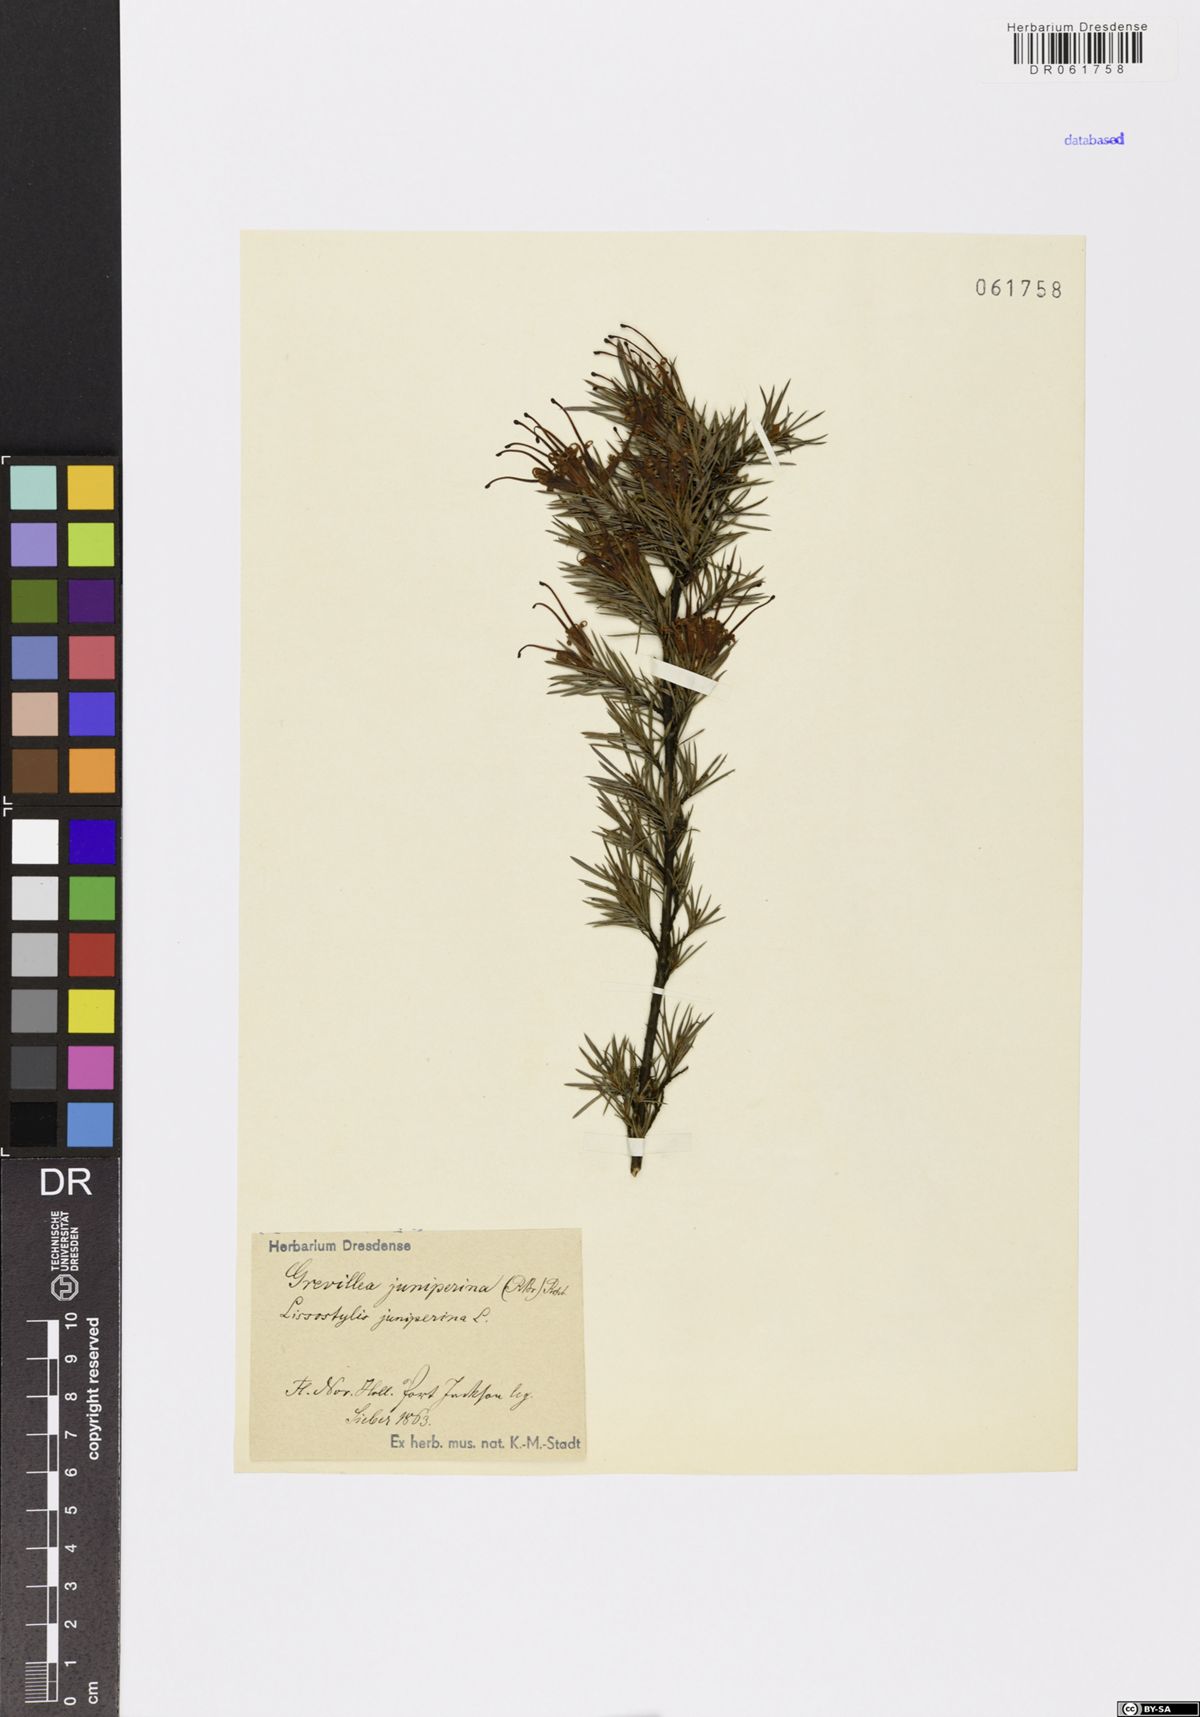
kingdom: Plantae
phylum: Tracheophyta
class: Magnoliopsida
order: Proteales
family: Proteaceae
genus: Grevillea
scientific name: Grevillea juniperina
